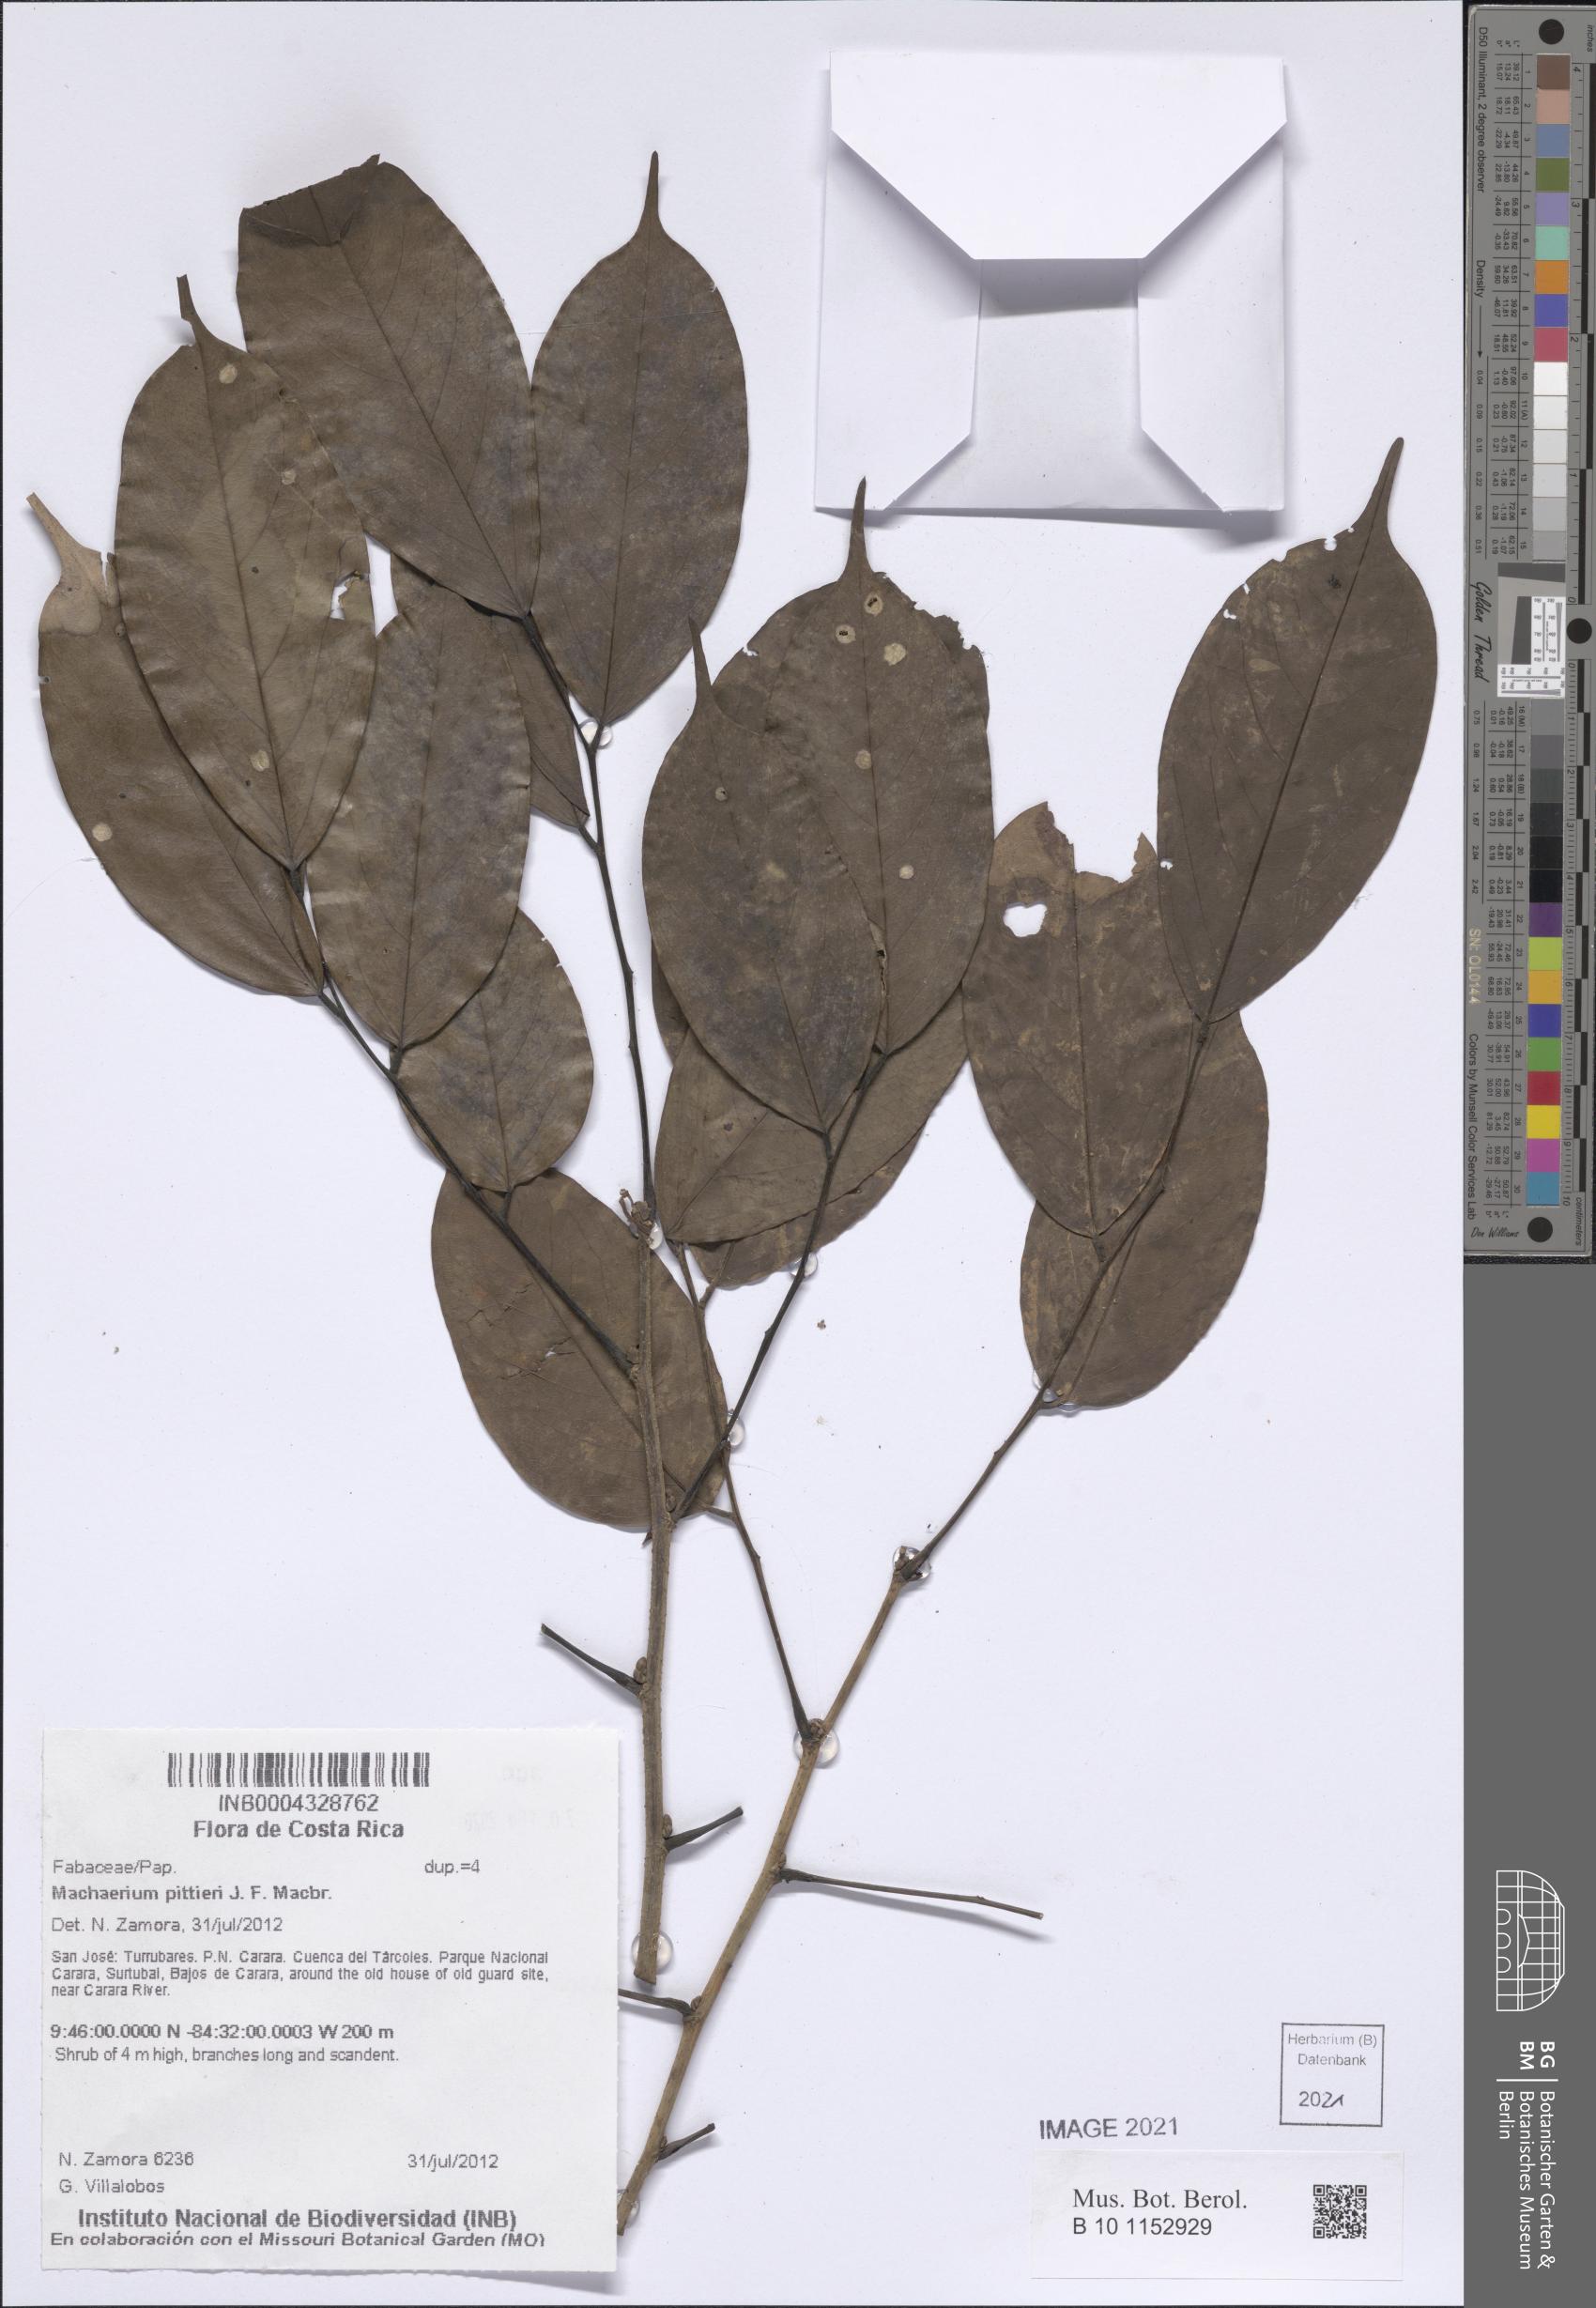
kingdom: Plantae
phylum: Tracheophyta
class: Magnoliopsida
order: Fabales
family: Fabaceae
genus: Machaerium
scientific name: Machaerium pittieri
